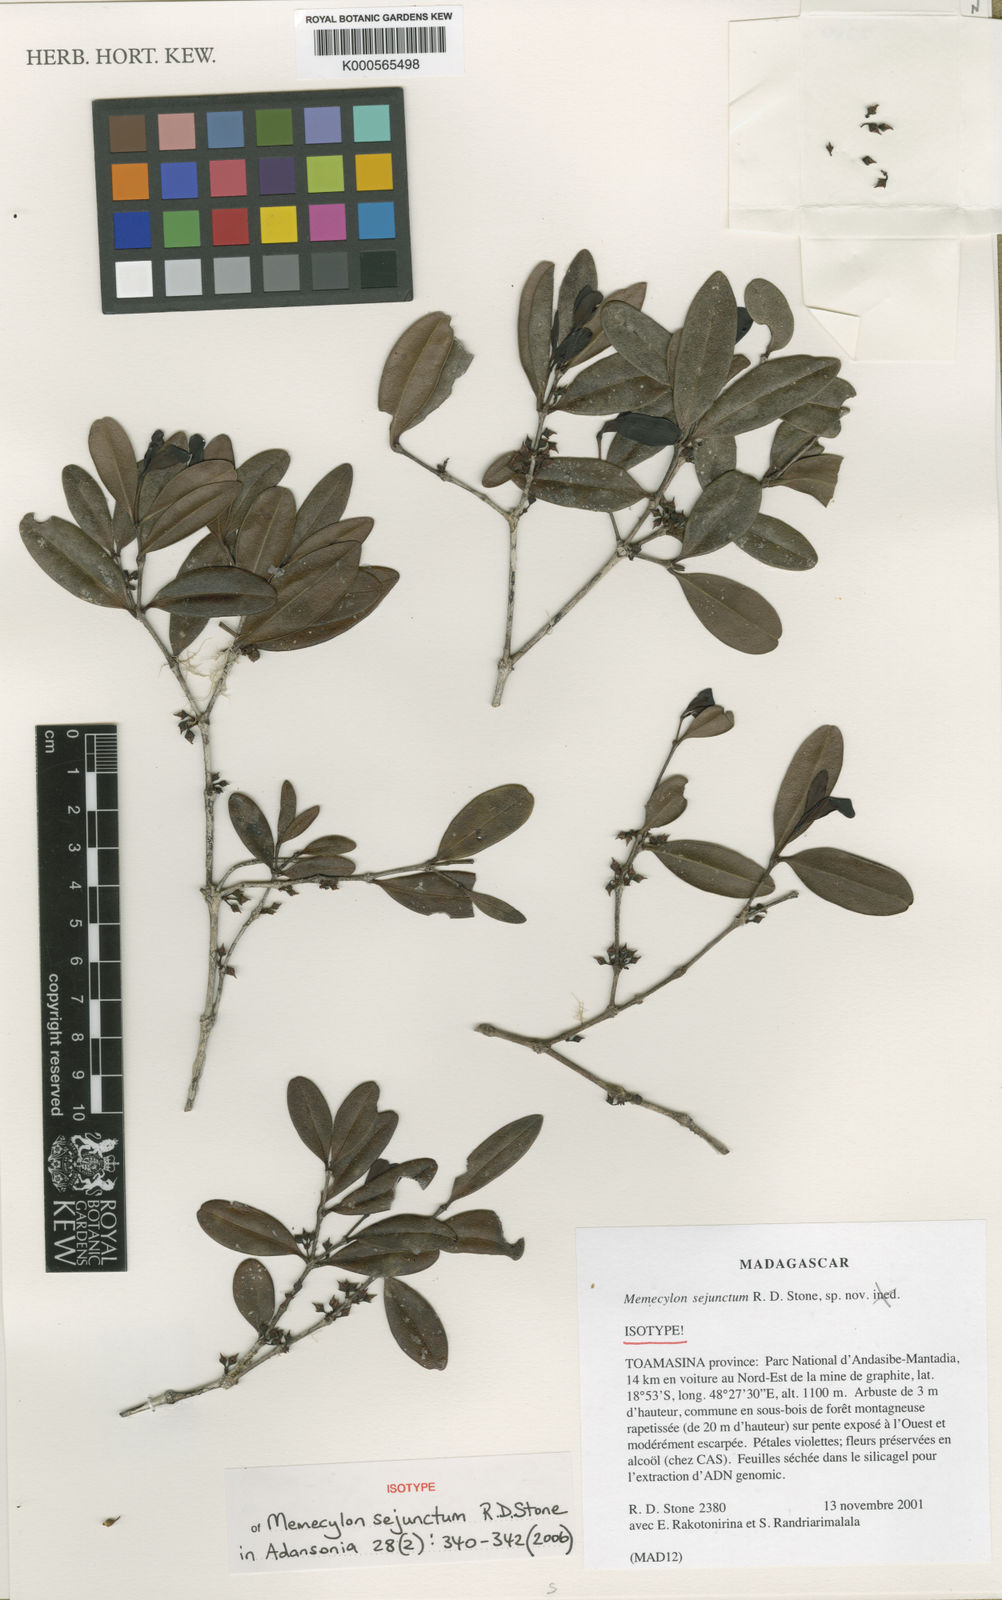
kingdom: Plantae
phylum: Tracheophyta
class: Magnoliopsida
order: Myrtales
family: Melastomataceae
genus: Memecylon
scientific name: Memecylon sejunctum
